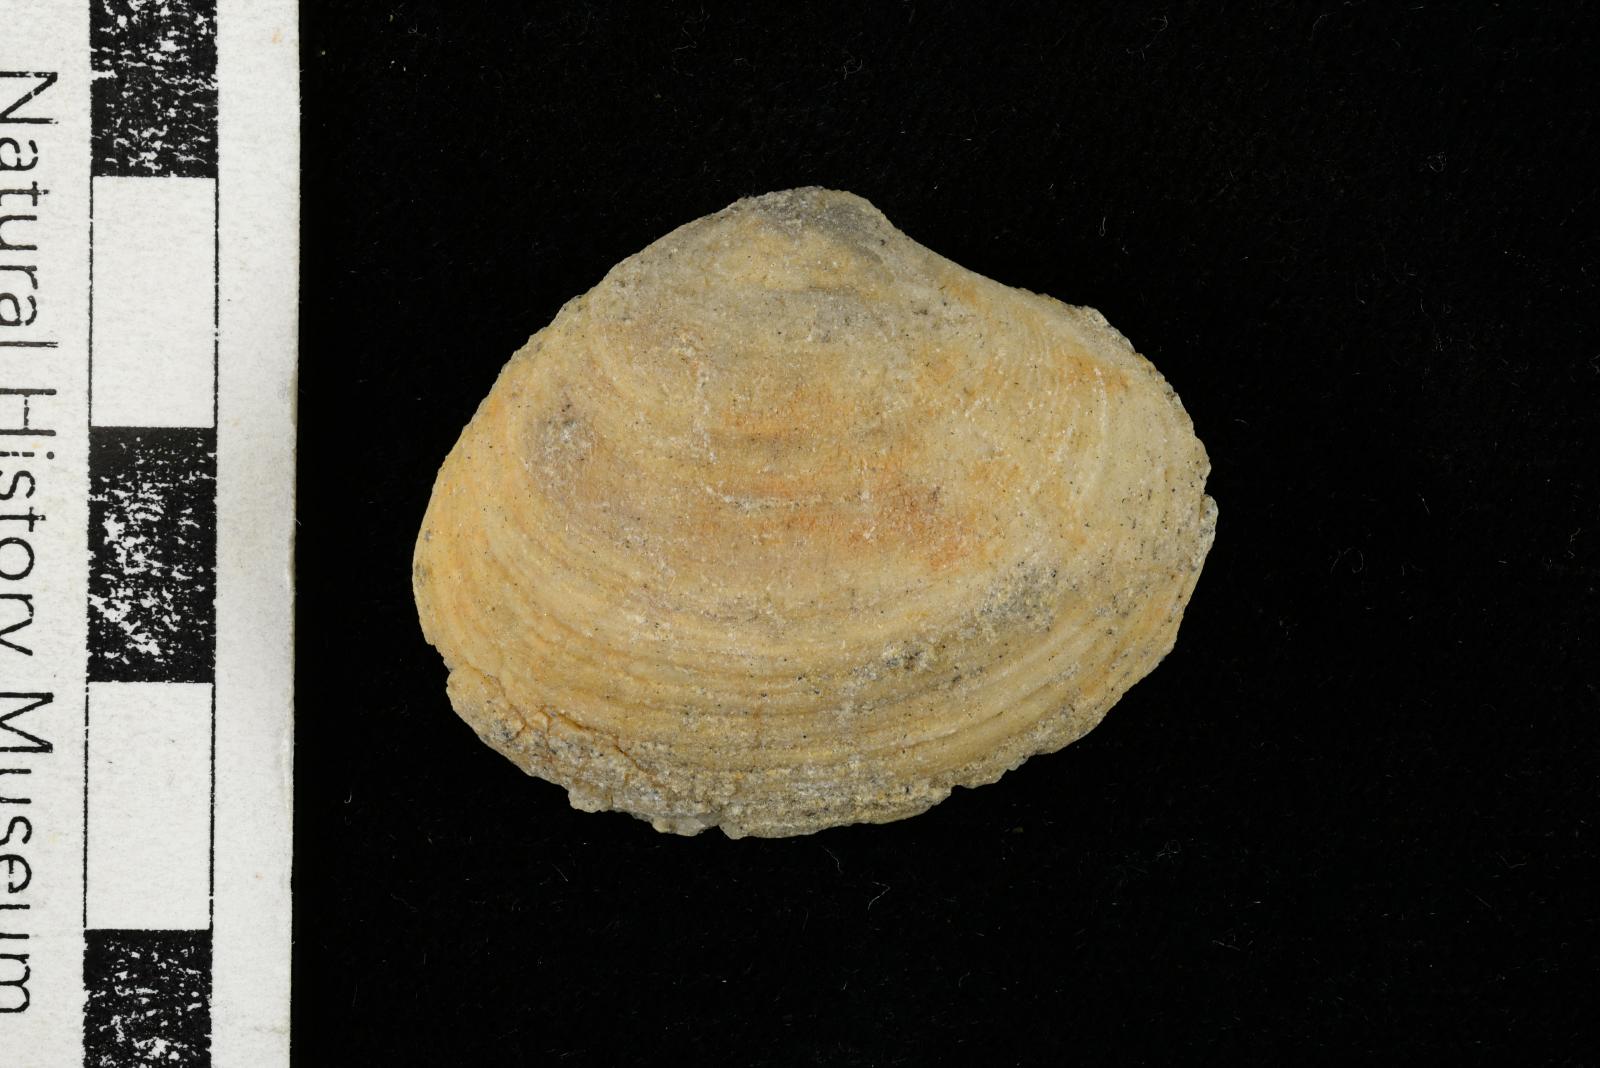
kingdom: Animalia
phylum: Mollusca
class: Bivalvia
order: Venerida
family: Veneridae
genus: Loxo
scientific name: Loxo quintense
